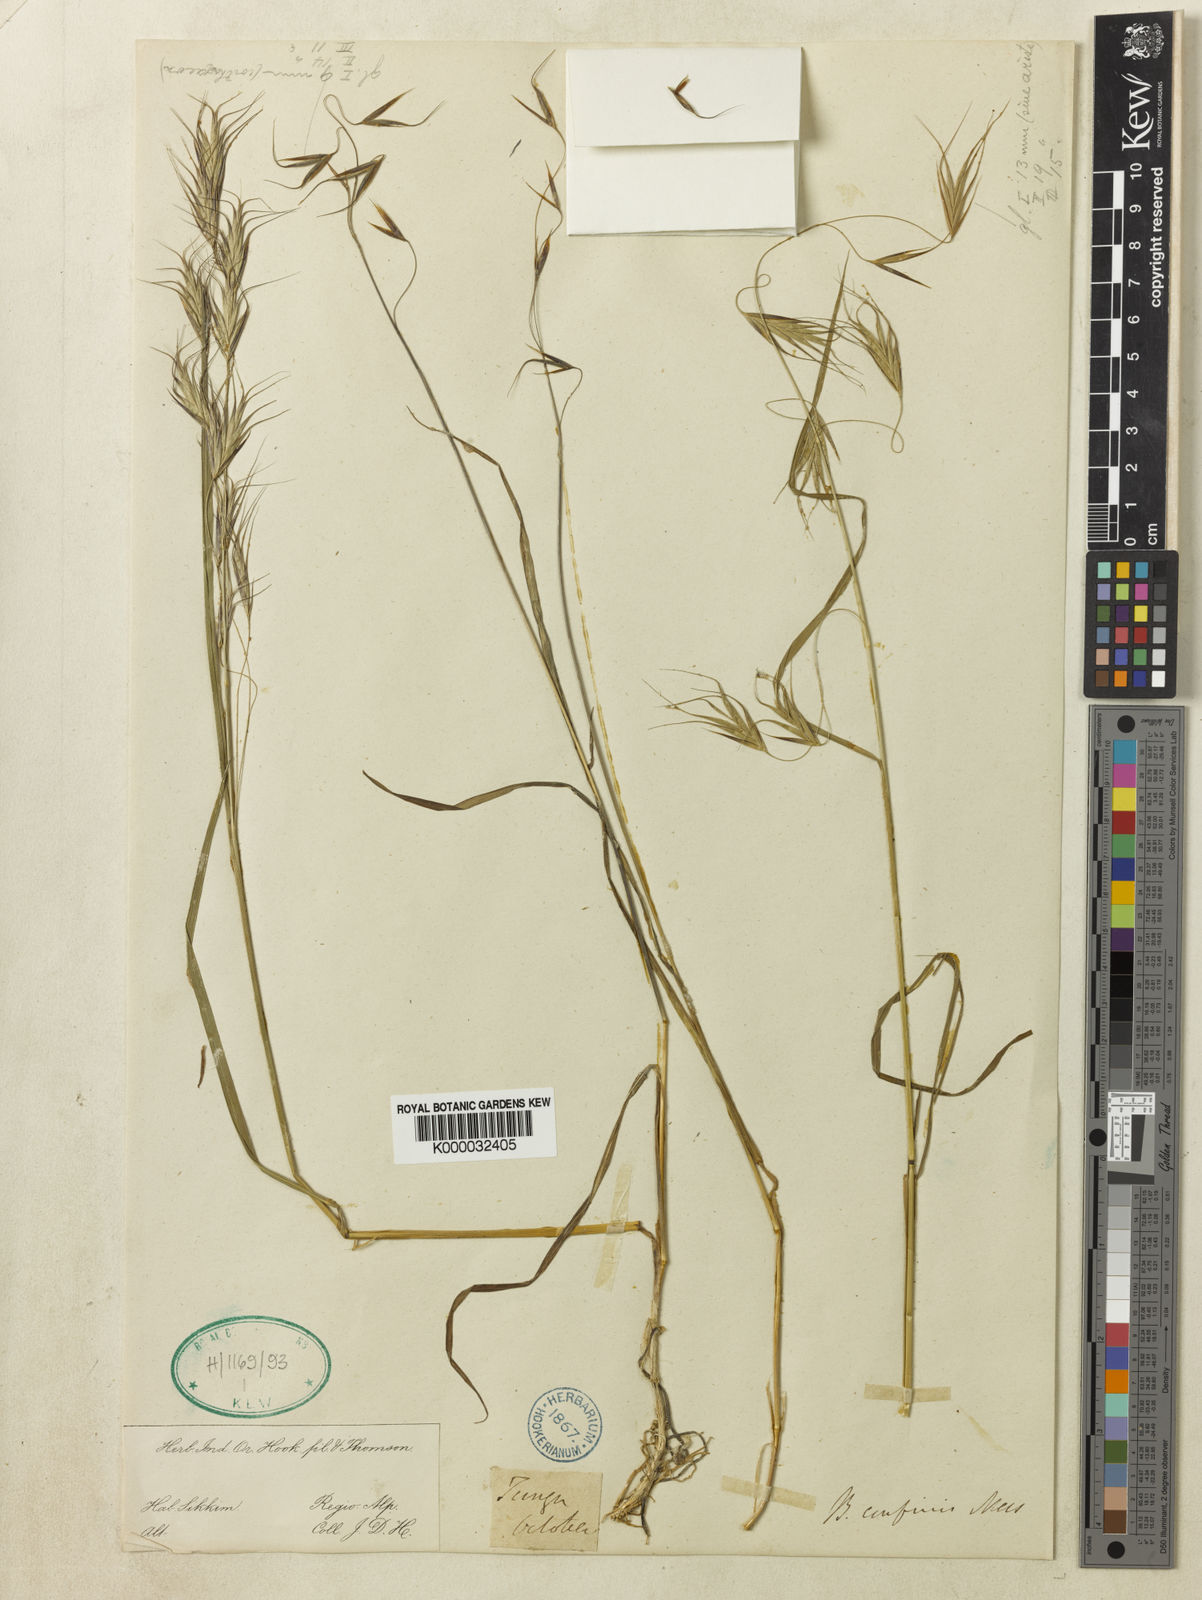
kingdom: Plantae
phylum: Tracheophyta
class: Liliopsida
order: Poales
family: Poaceae
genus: Bromus
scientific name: Bromus porphyranthos
